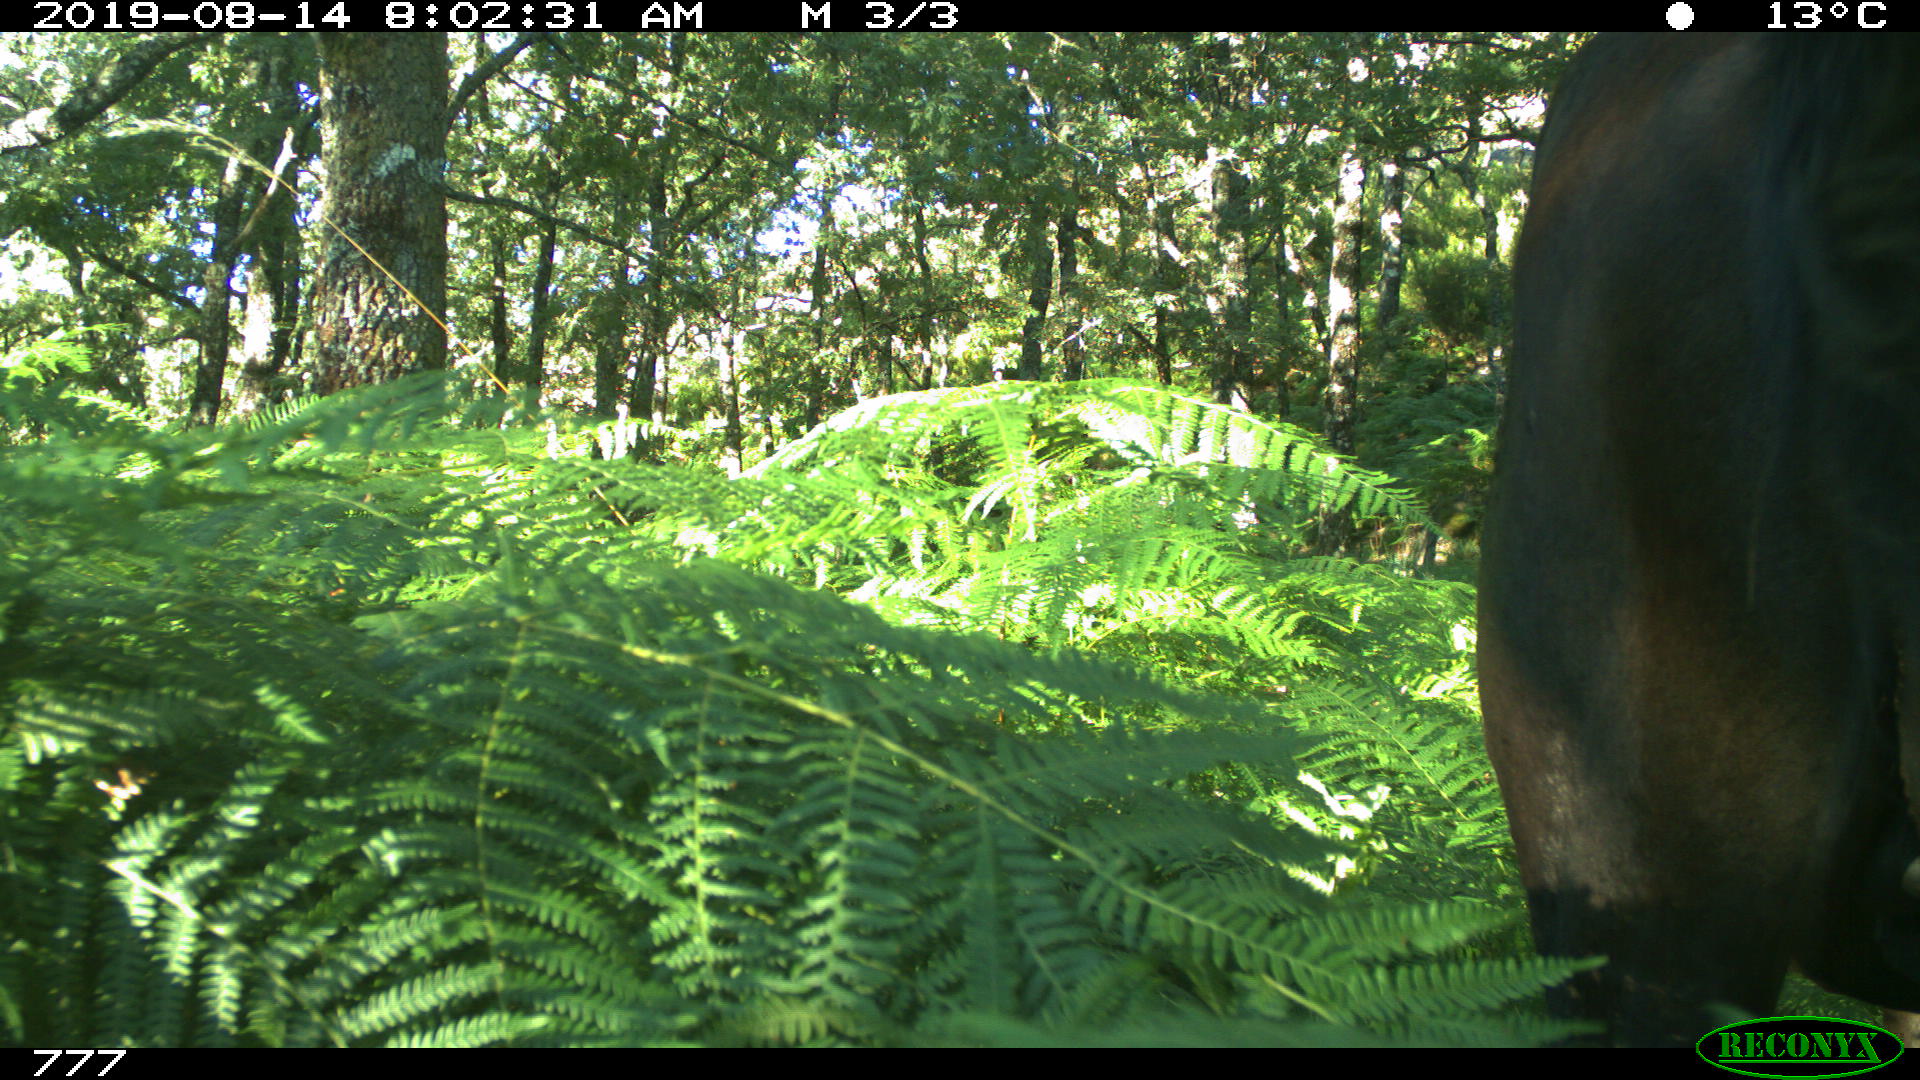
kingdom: Animalia
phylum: Chordata
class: Mammalia
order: Perissodactyla
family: Equidae
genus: Equus
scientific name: Equus caballus
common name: Horse
